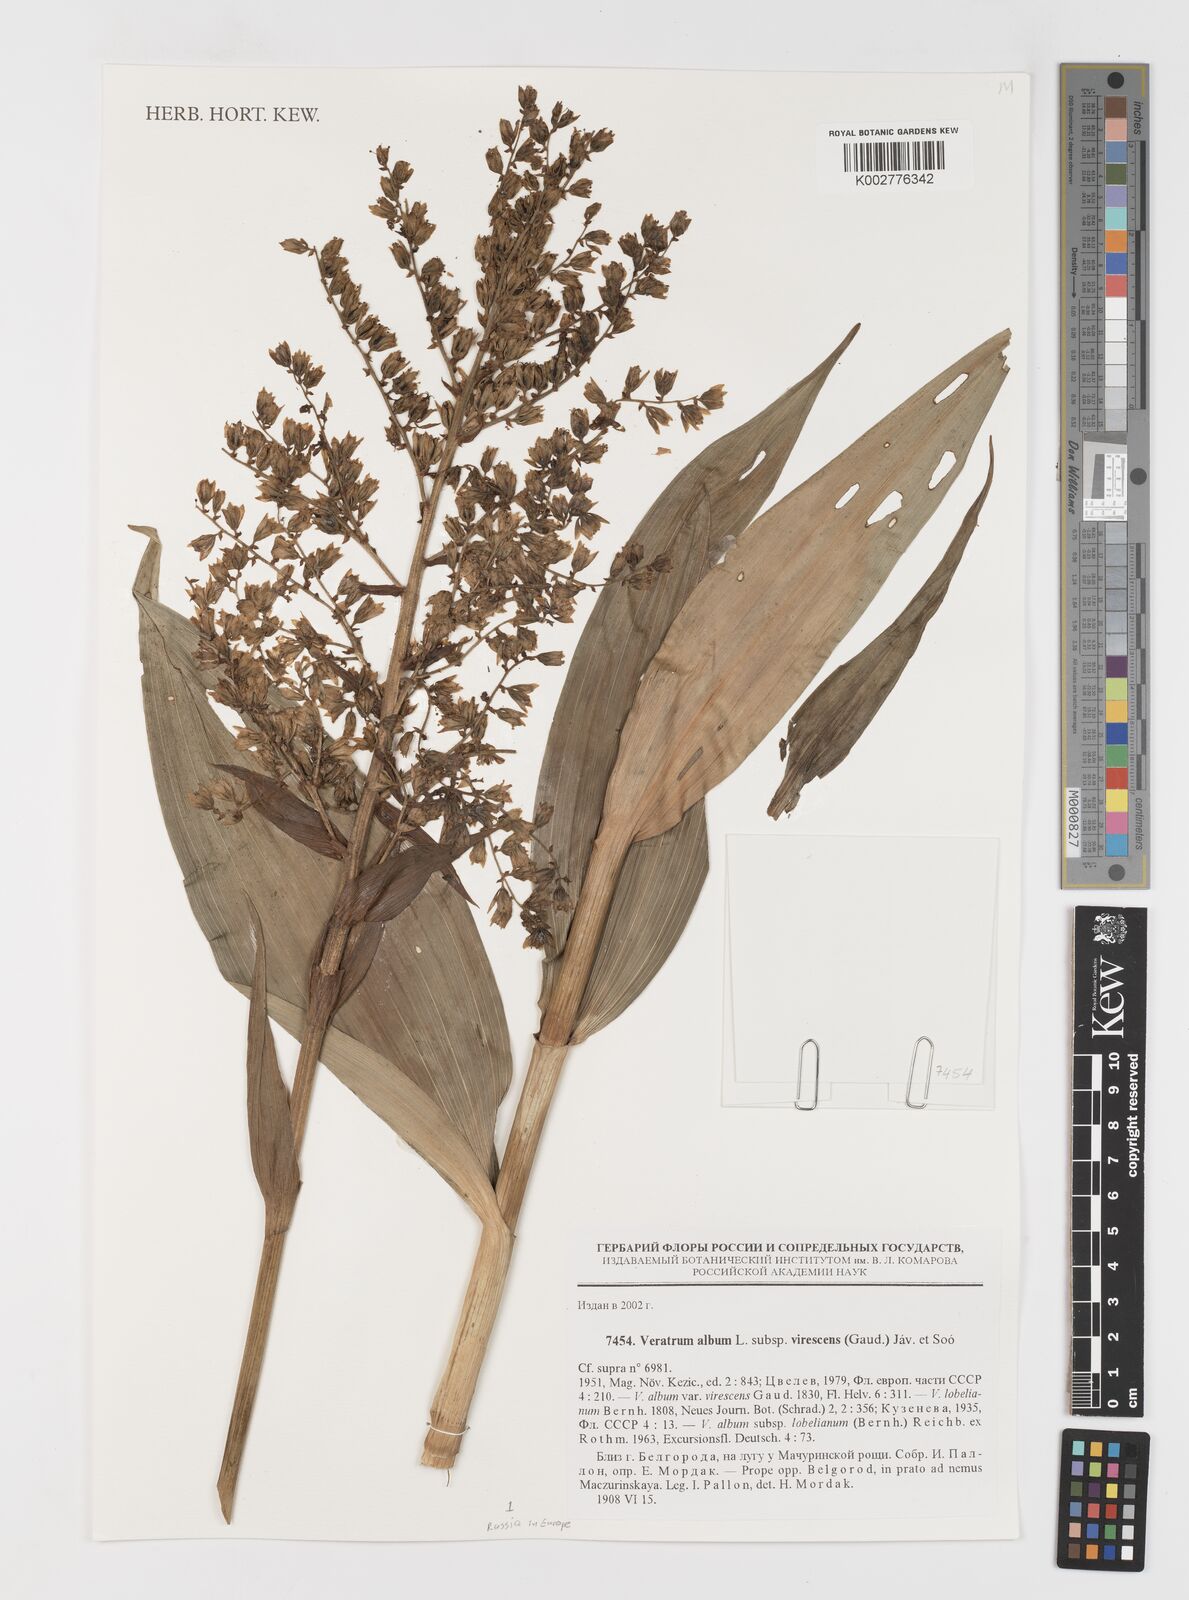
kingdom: Plantae
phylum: Tracheophyta
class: Liliopsida
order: Liliales
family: Melanthiaceae
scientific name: Melanthiaceae
